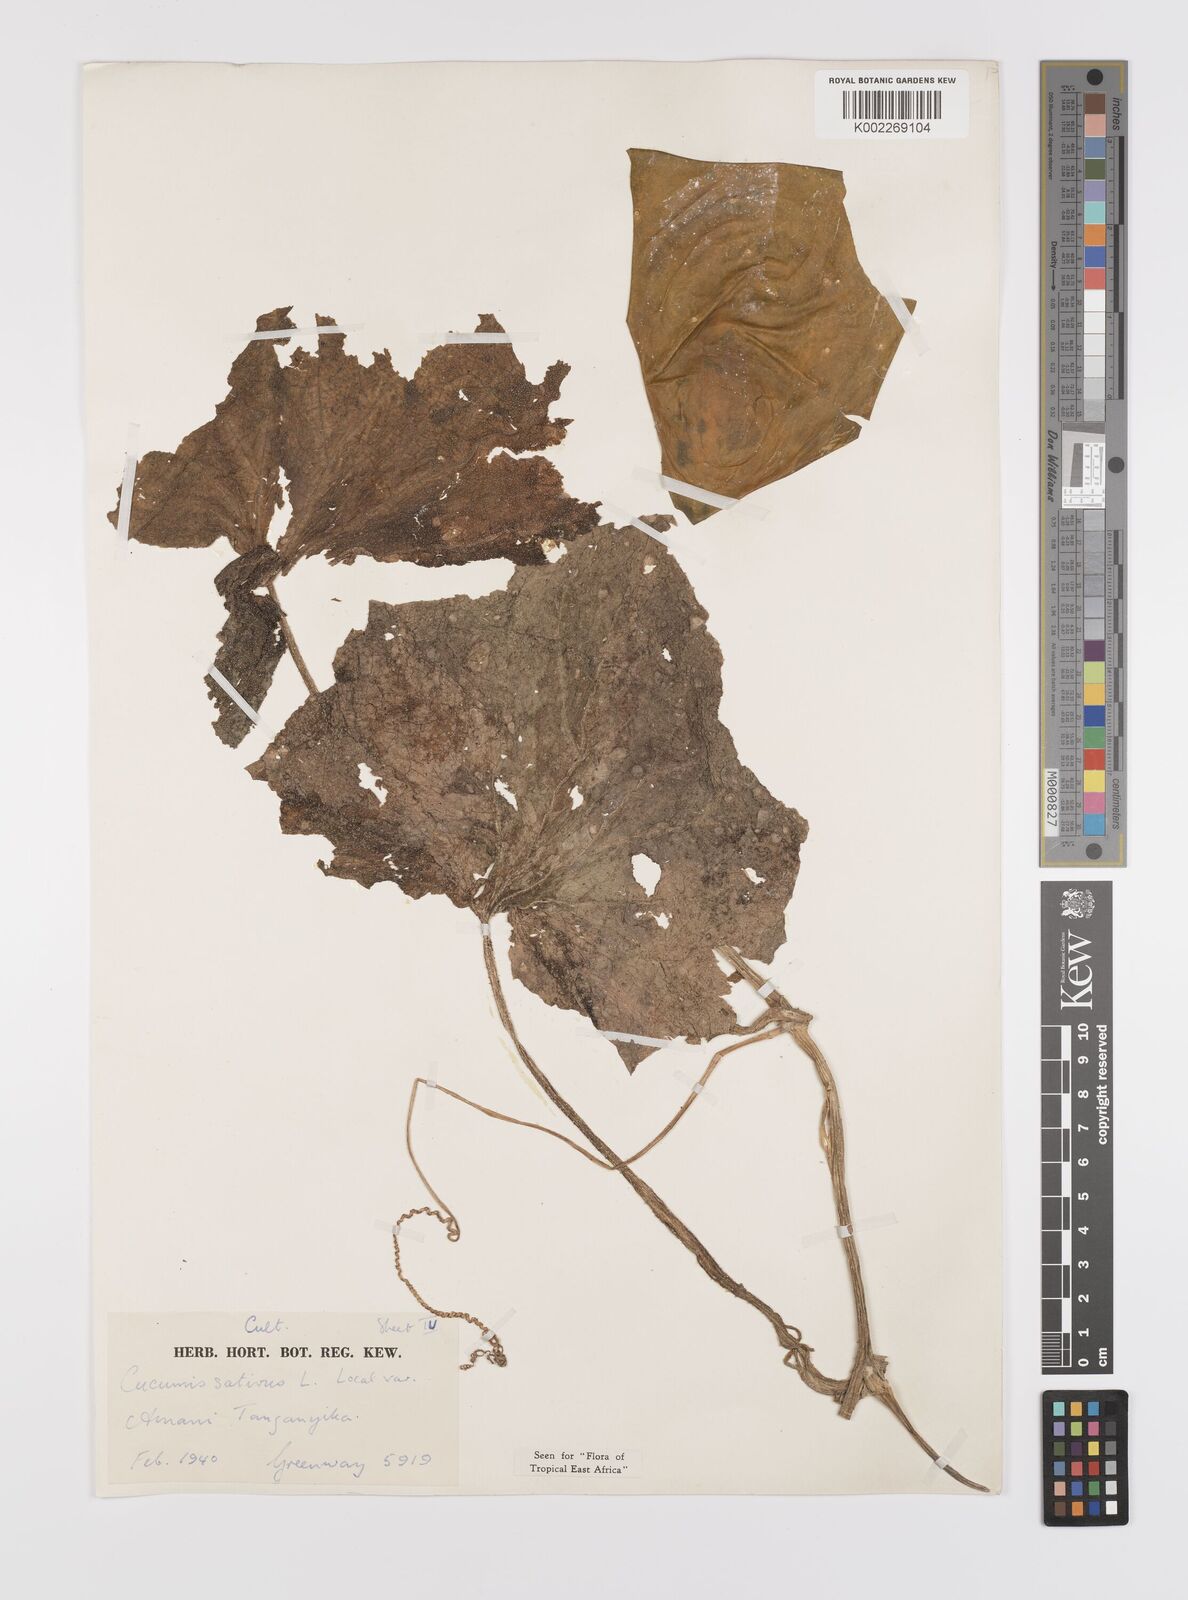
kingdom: Plantae
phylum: Tracheophyta
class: Magnoliopsida
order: Cucurbitales
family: Cucurbitaceae
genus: Cucumis
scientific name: Cucumis sativus
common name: Cucumber
